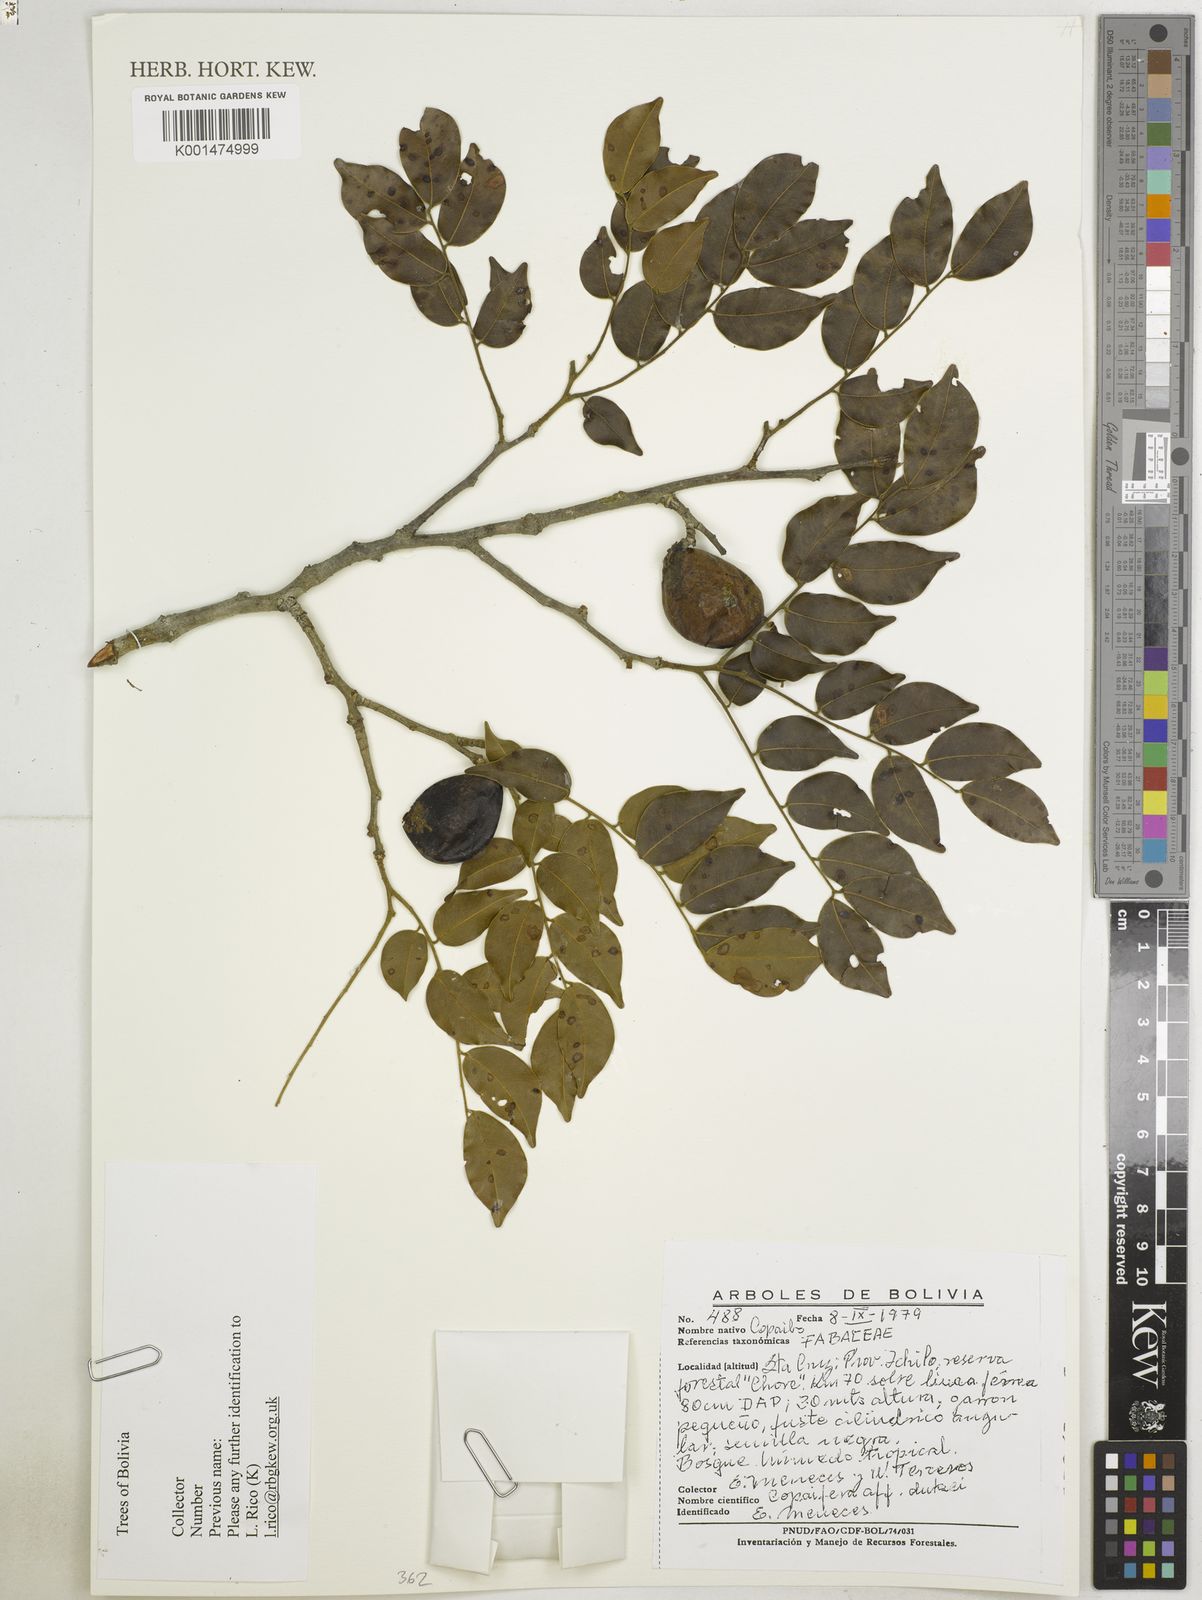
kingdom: Plantae
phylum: Tracheophyta
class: Magnoliopsida
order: Fabales
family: Fabaceae
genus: Copaifera
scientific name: Copaifera duckei
